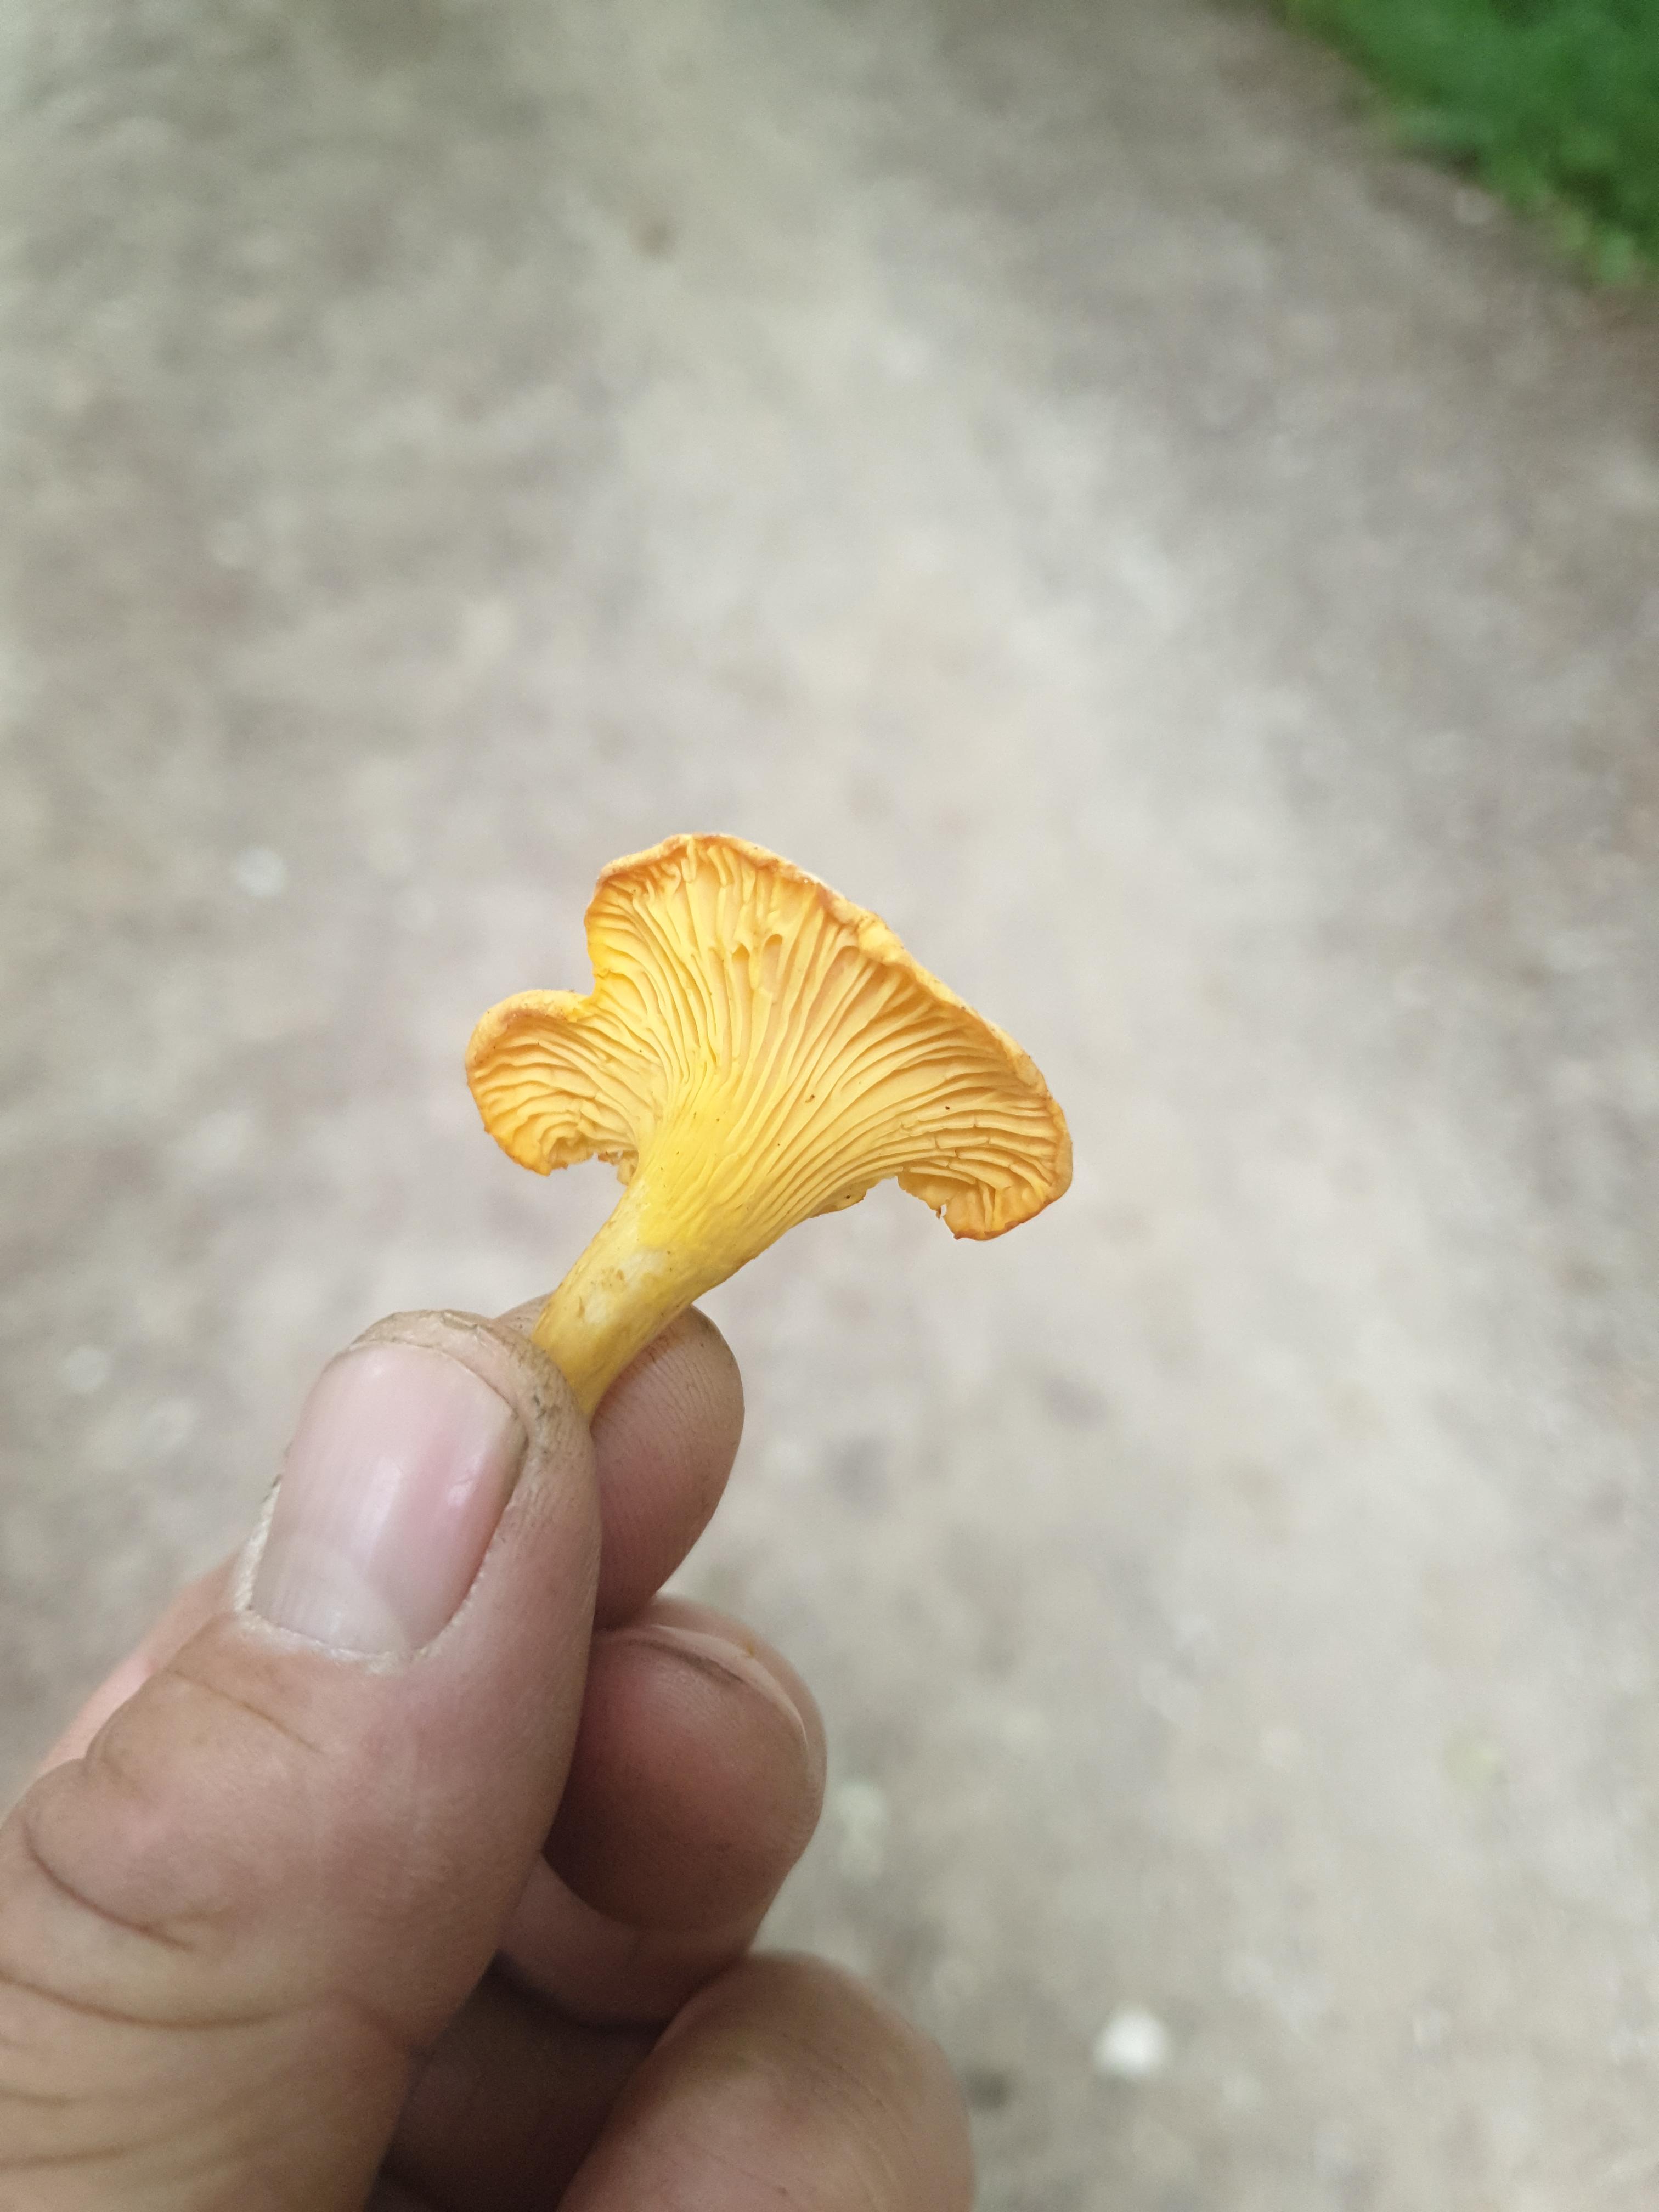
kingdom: Fungi
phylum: Basidiomycota
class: Agaricomycetes
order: Cantharellales
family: Hydnaceae
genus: Cantharellus
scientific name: Cantharellus cibarius
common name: almindelig kantarel
